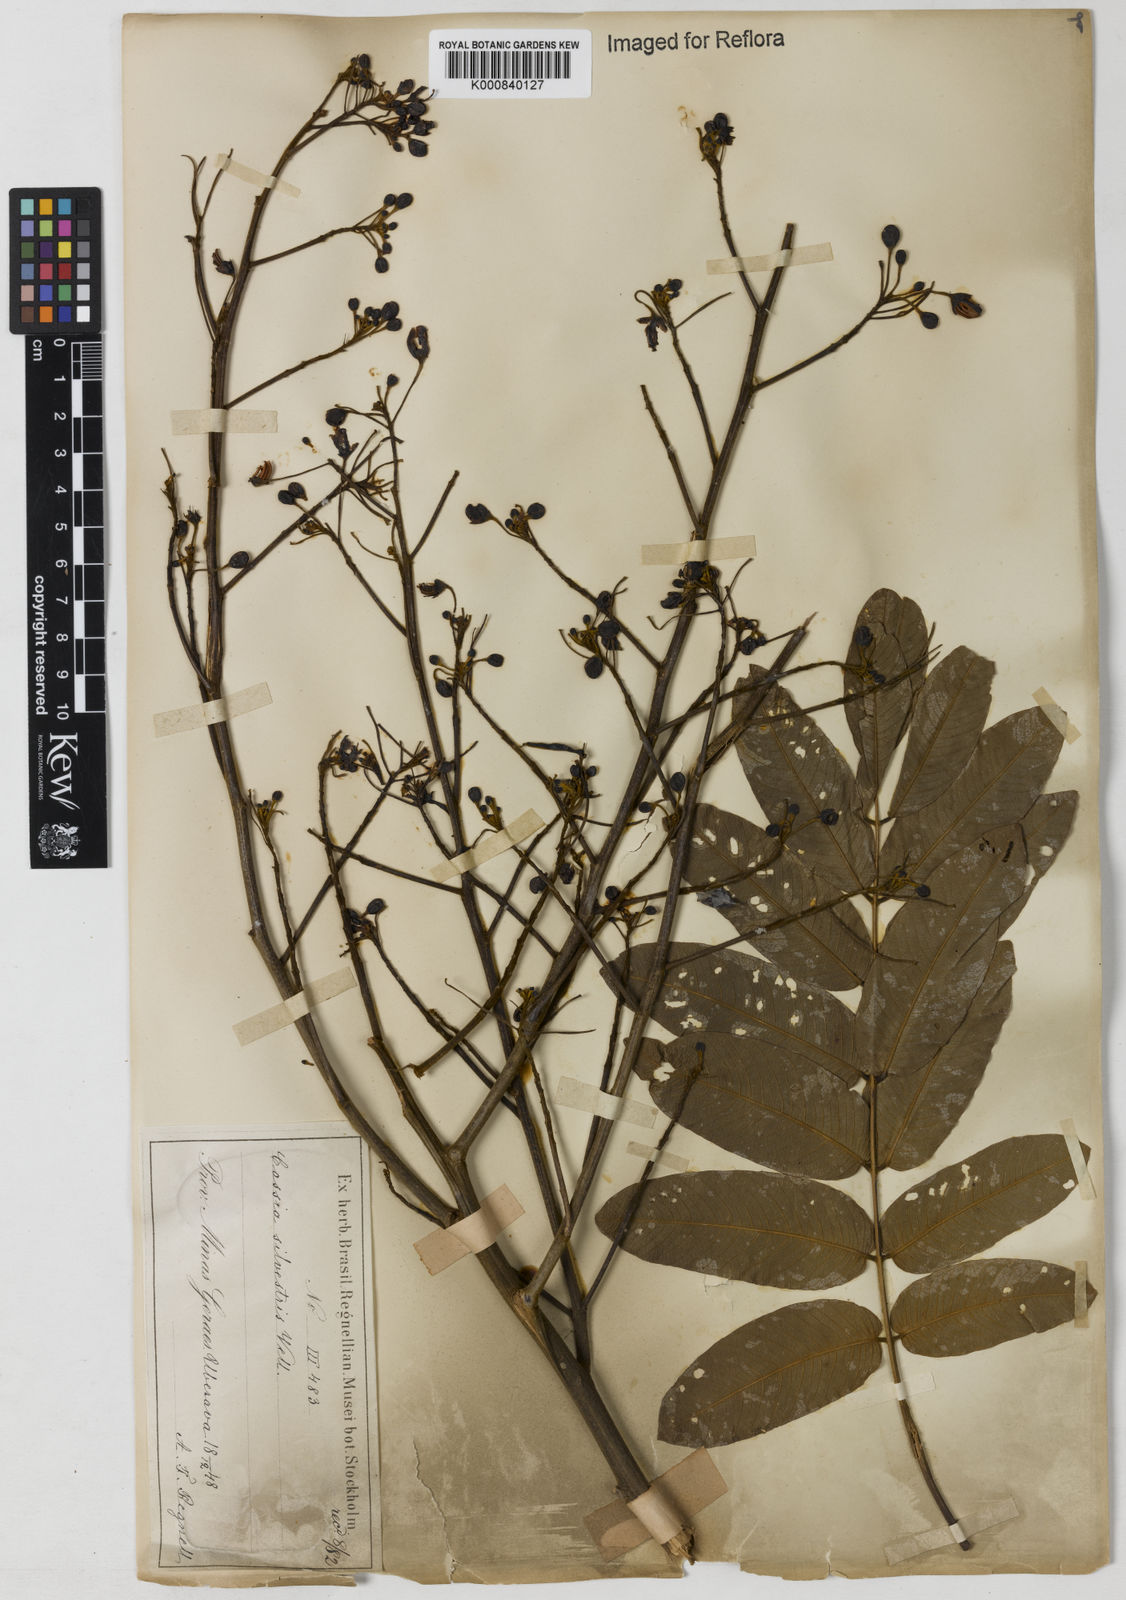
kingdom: Plantae
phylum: Tracheophyta
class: Magnoliopsida
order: Fabales
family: Fabaceae
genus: Senna
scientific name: Senna silvestris
